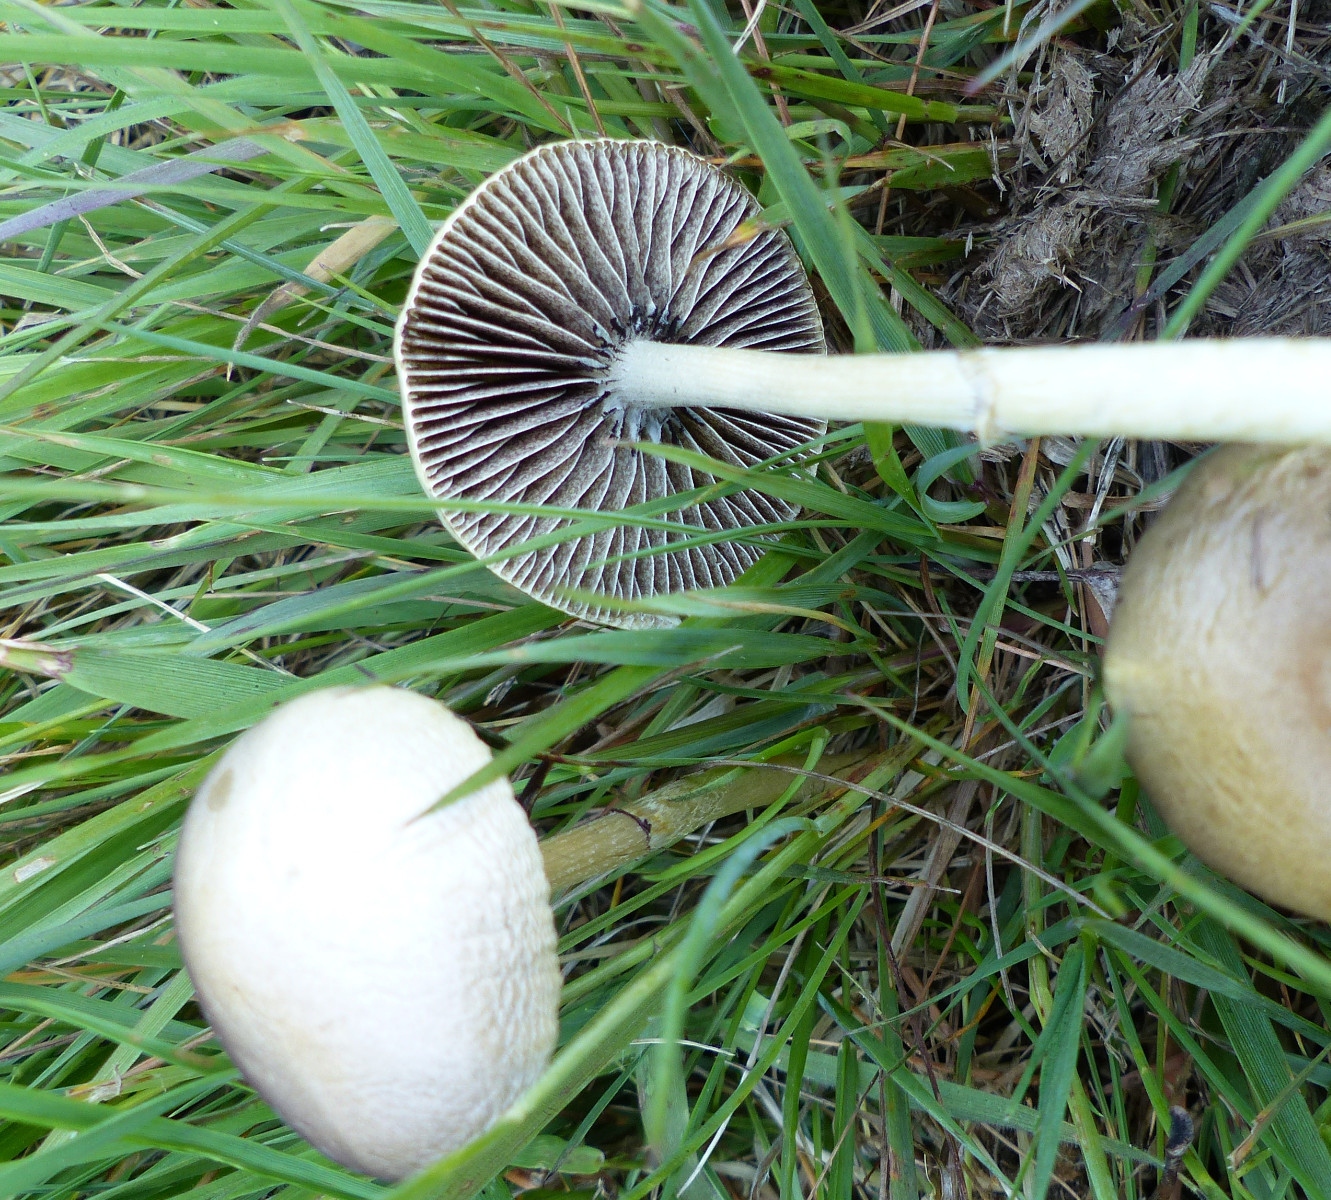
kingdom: Fungi
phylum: Basidiomycota
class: Agaricomycetes
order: Agaricales
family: Bolbitiaceae
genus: Panaeolus
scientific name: Panaeolus semiovatus
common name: ring-glanshat
